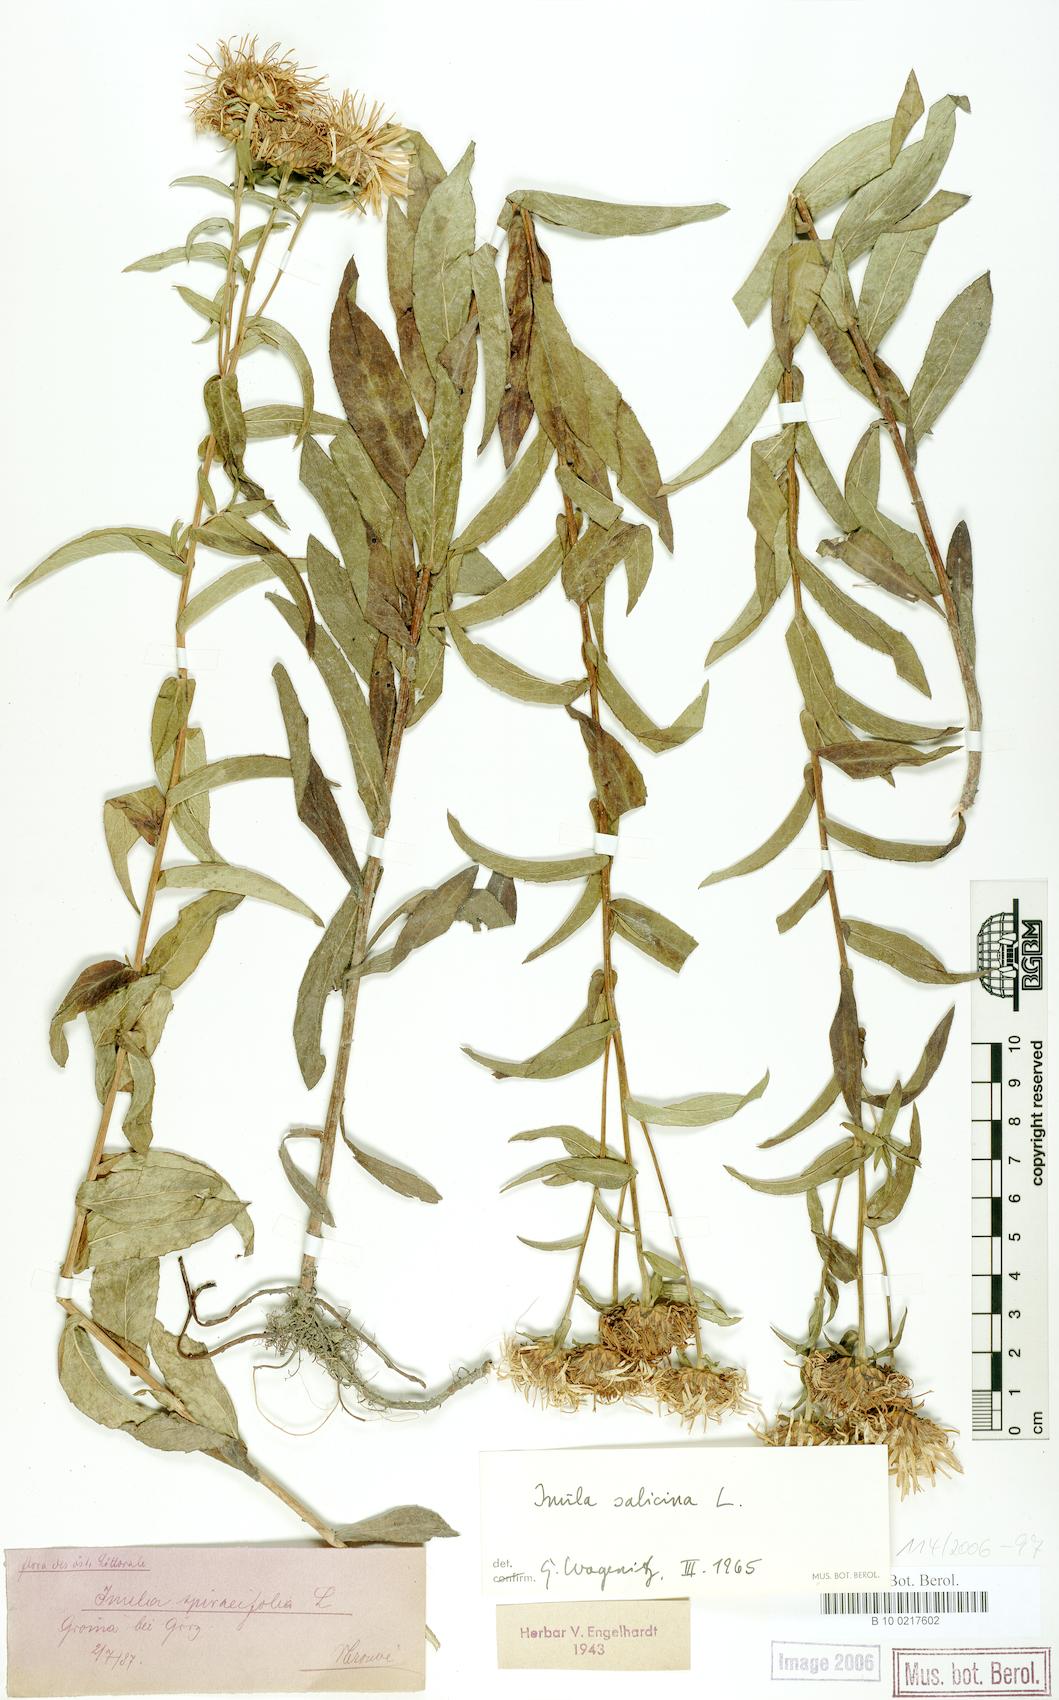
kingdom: Plantae
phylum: Tracheophyta
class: Magnoliopsida
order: Asterales
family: Asteraceae
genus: Pentanema
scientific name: Pentanema spiraeifolium
